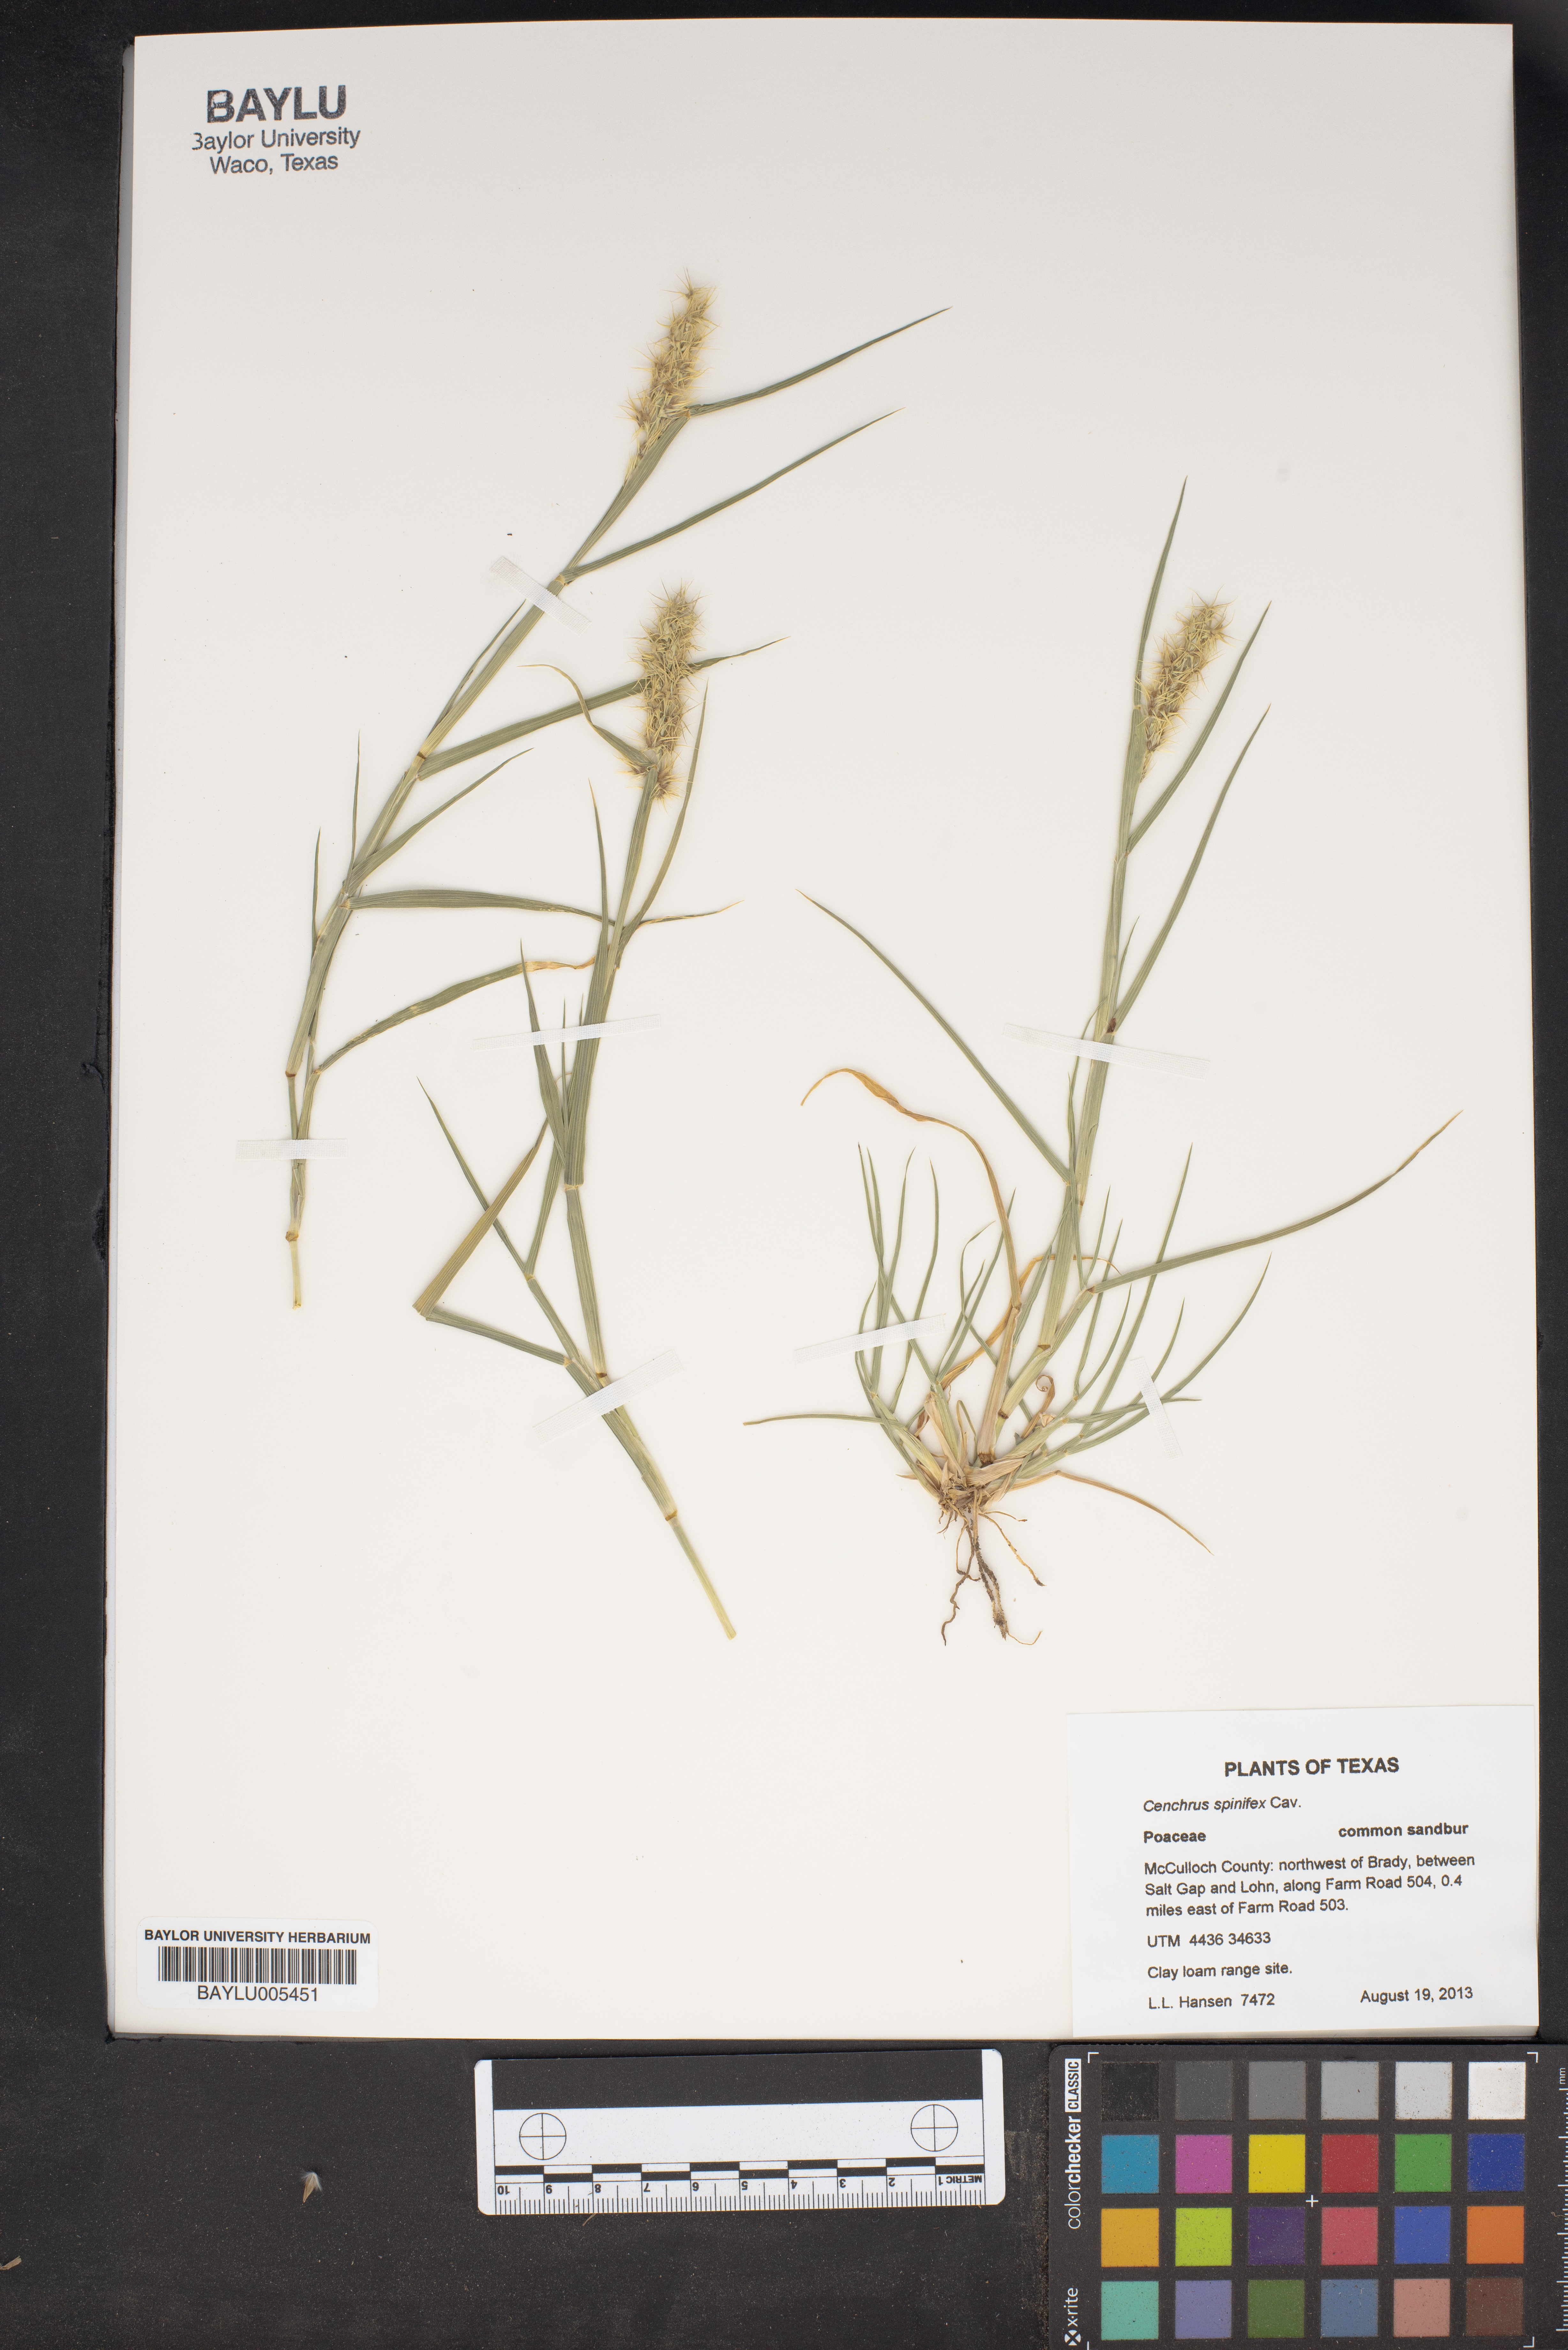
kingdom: Plantae
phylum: Tracheophyta
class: Liliopsida
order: Poales
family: Poaceae
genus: Cenchrus
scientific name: Cenchrus spinifex
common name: Coast sandbur
